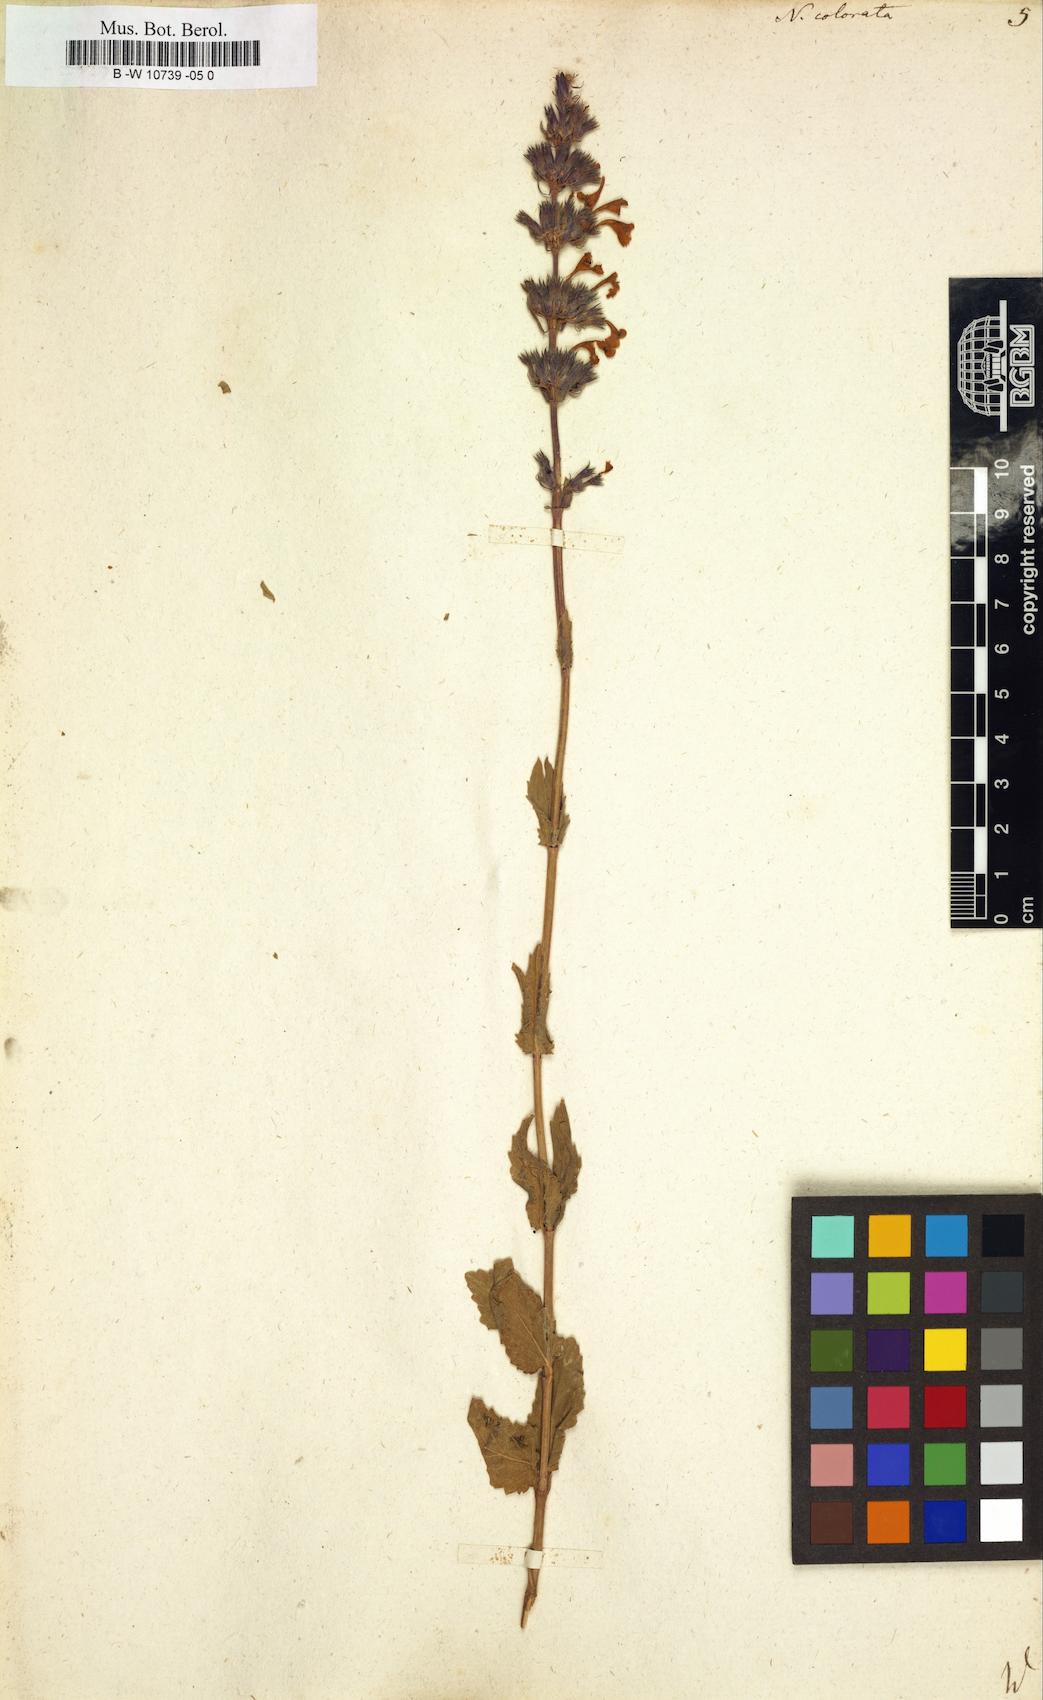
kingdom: Plantae
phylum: Tracheophyta
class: Magnoliopsida
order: Lamiales
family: Lamiaceae
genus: Nepeta
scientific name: Nepeta grandiflora
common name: Caucasus catmint
